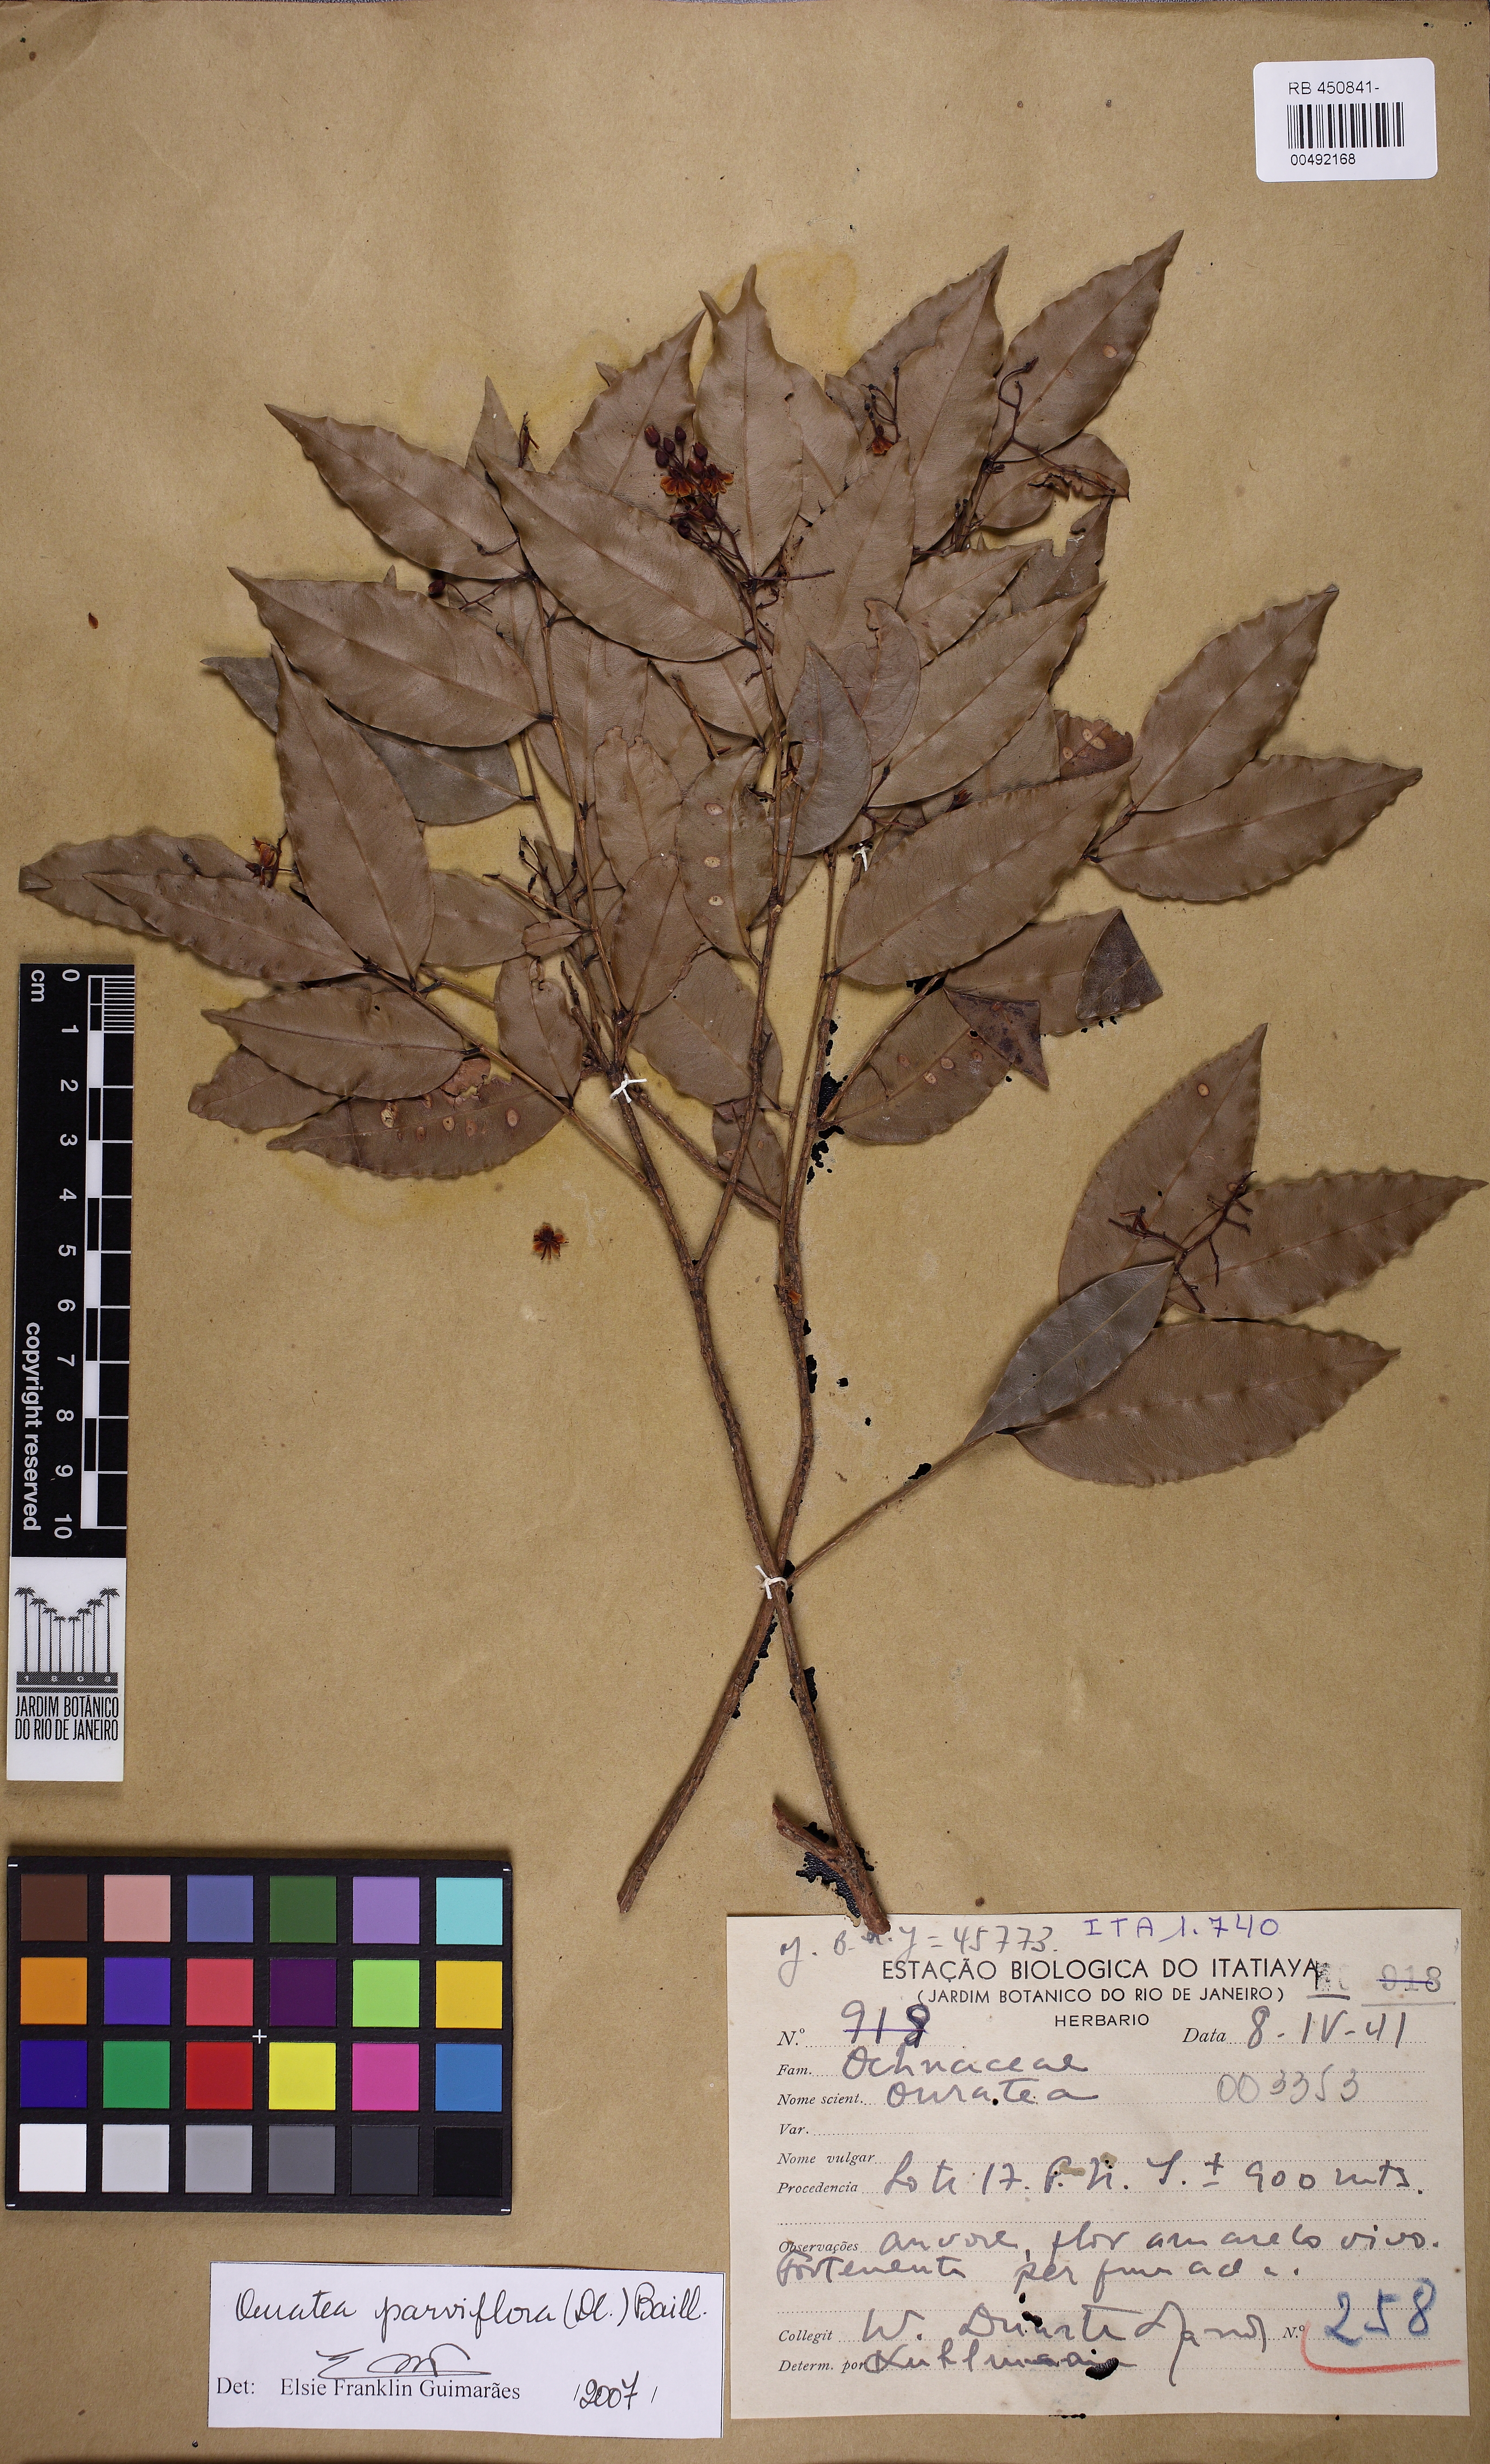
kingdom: Plantae
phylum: Tracheophyta
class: Magnoliopsida
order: Malpighiales
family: Ochnaceae
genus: Ouratea
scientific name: Ouratea parviflora
